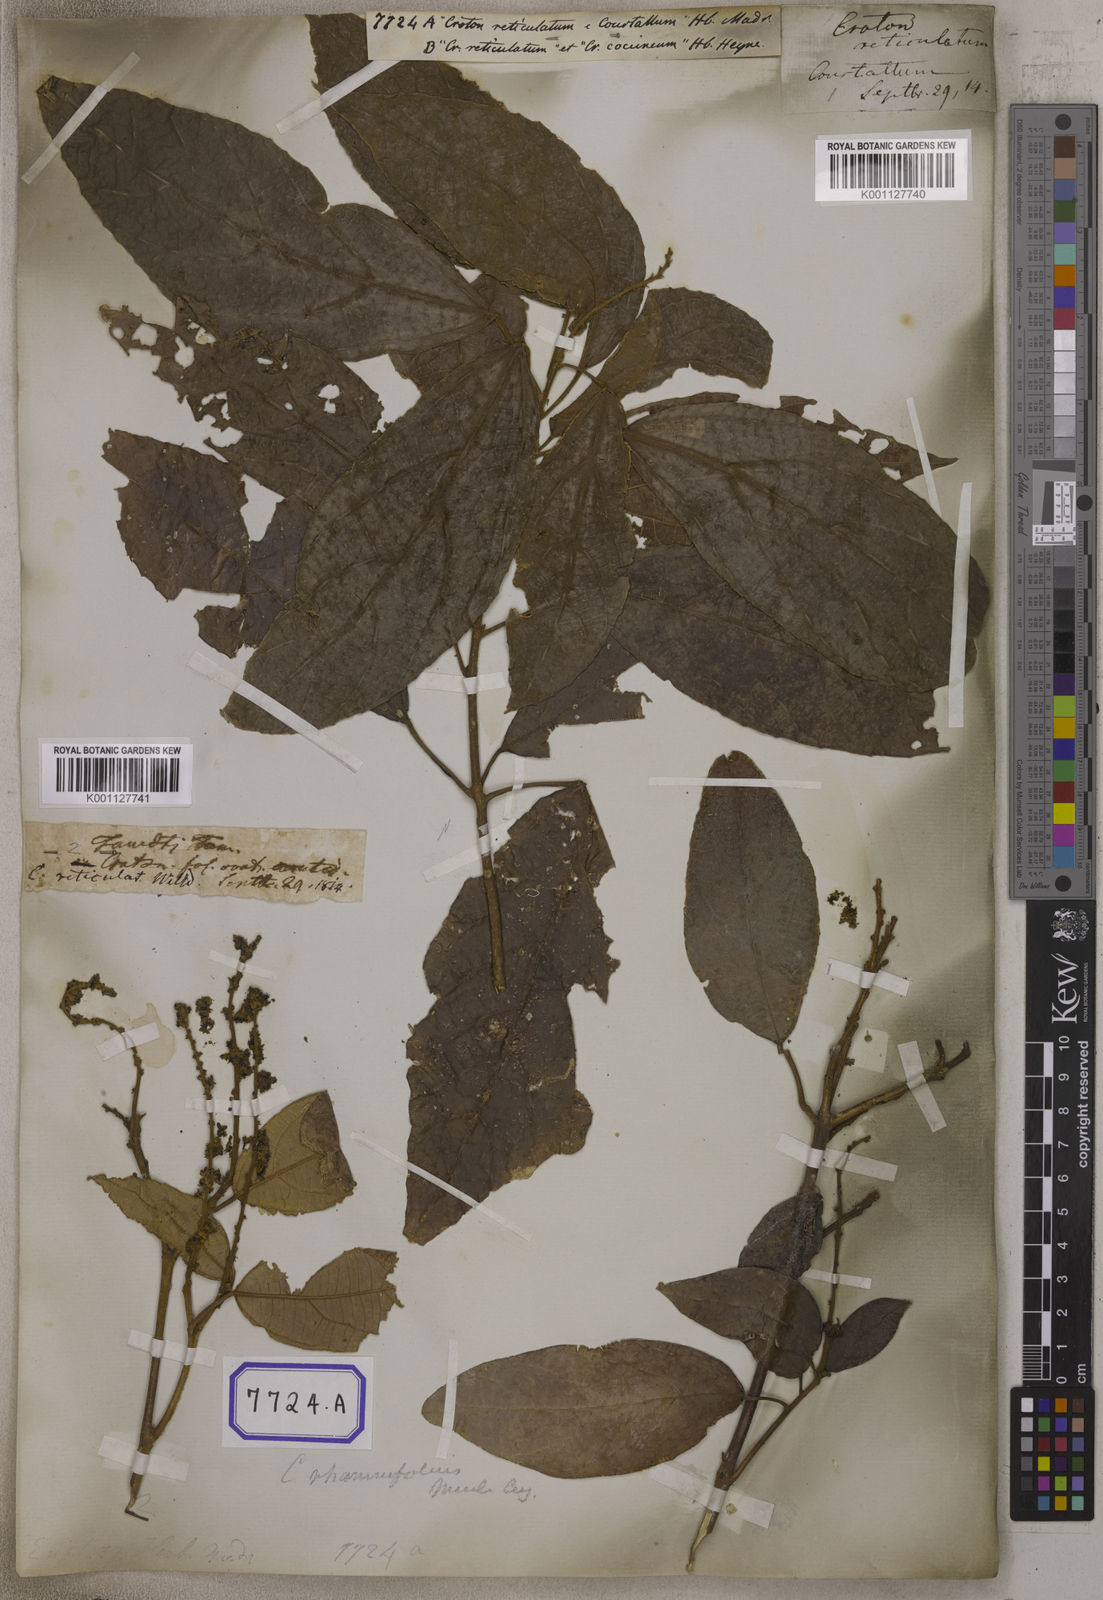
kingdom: Plantae
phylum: Tracheophyta
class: Magnoliopsida
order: Malpighiales
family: Euphorbiaceae
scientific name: Euphorbiaceae
